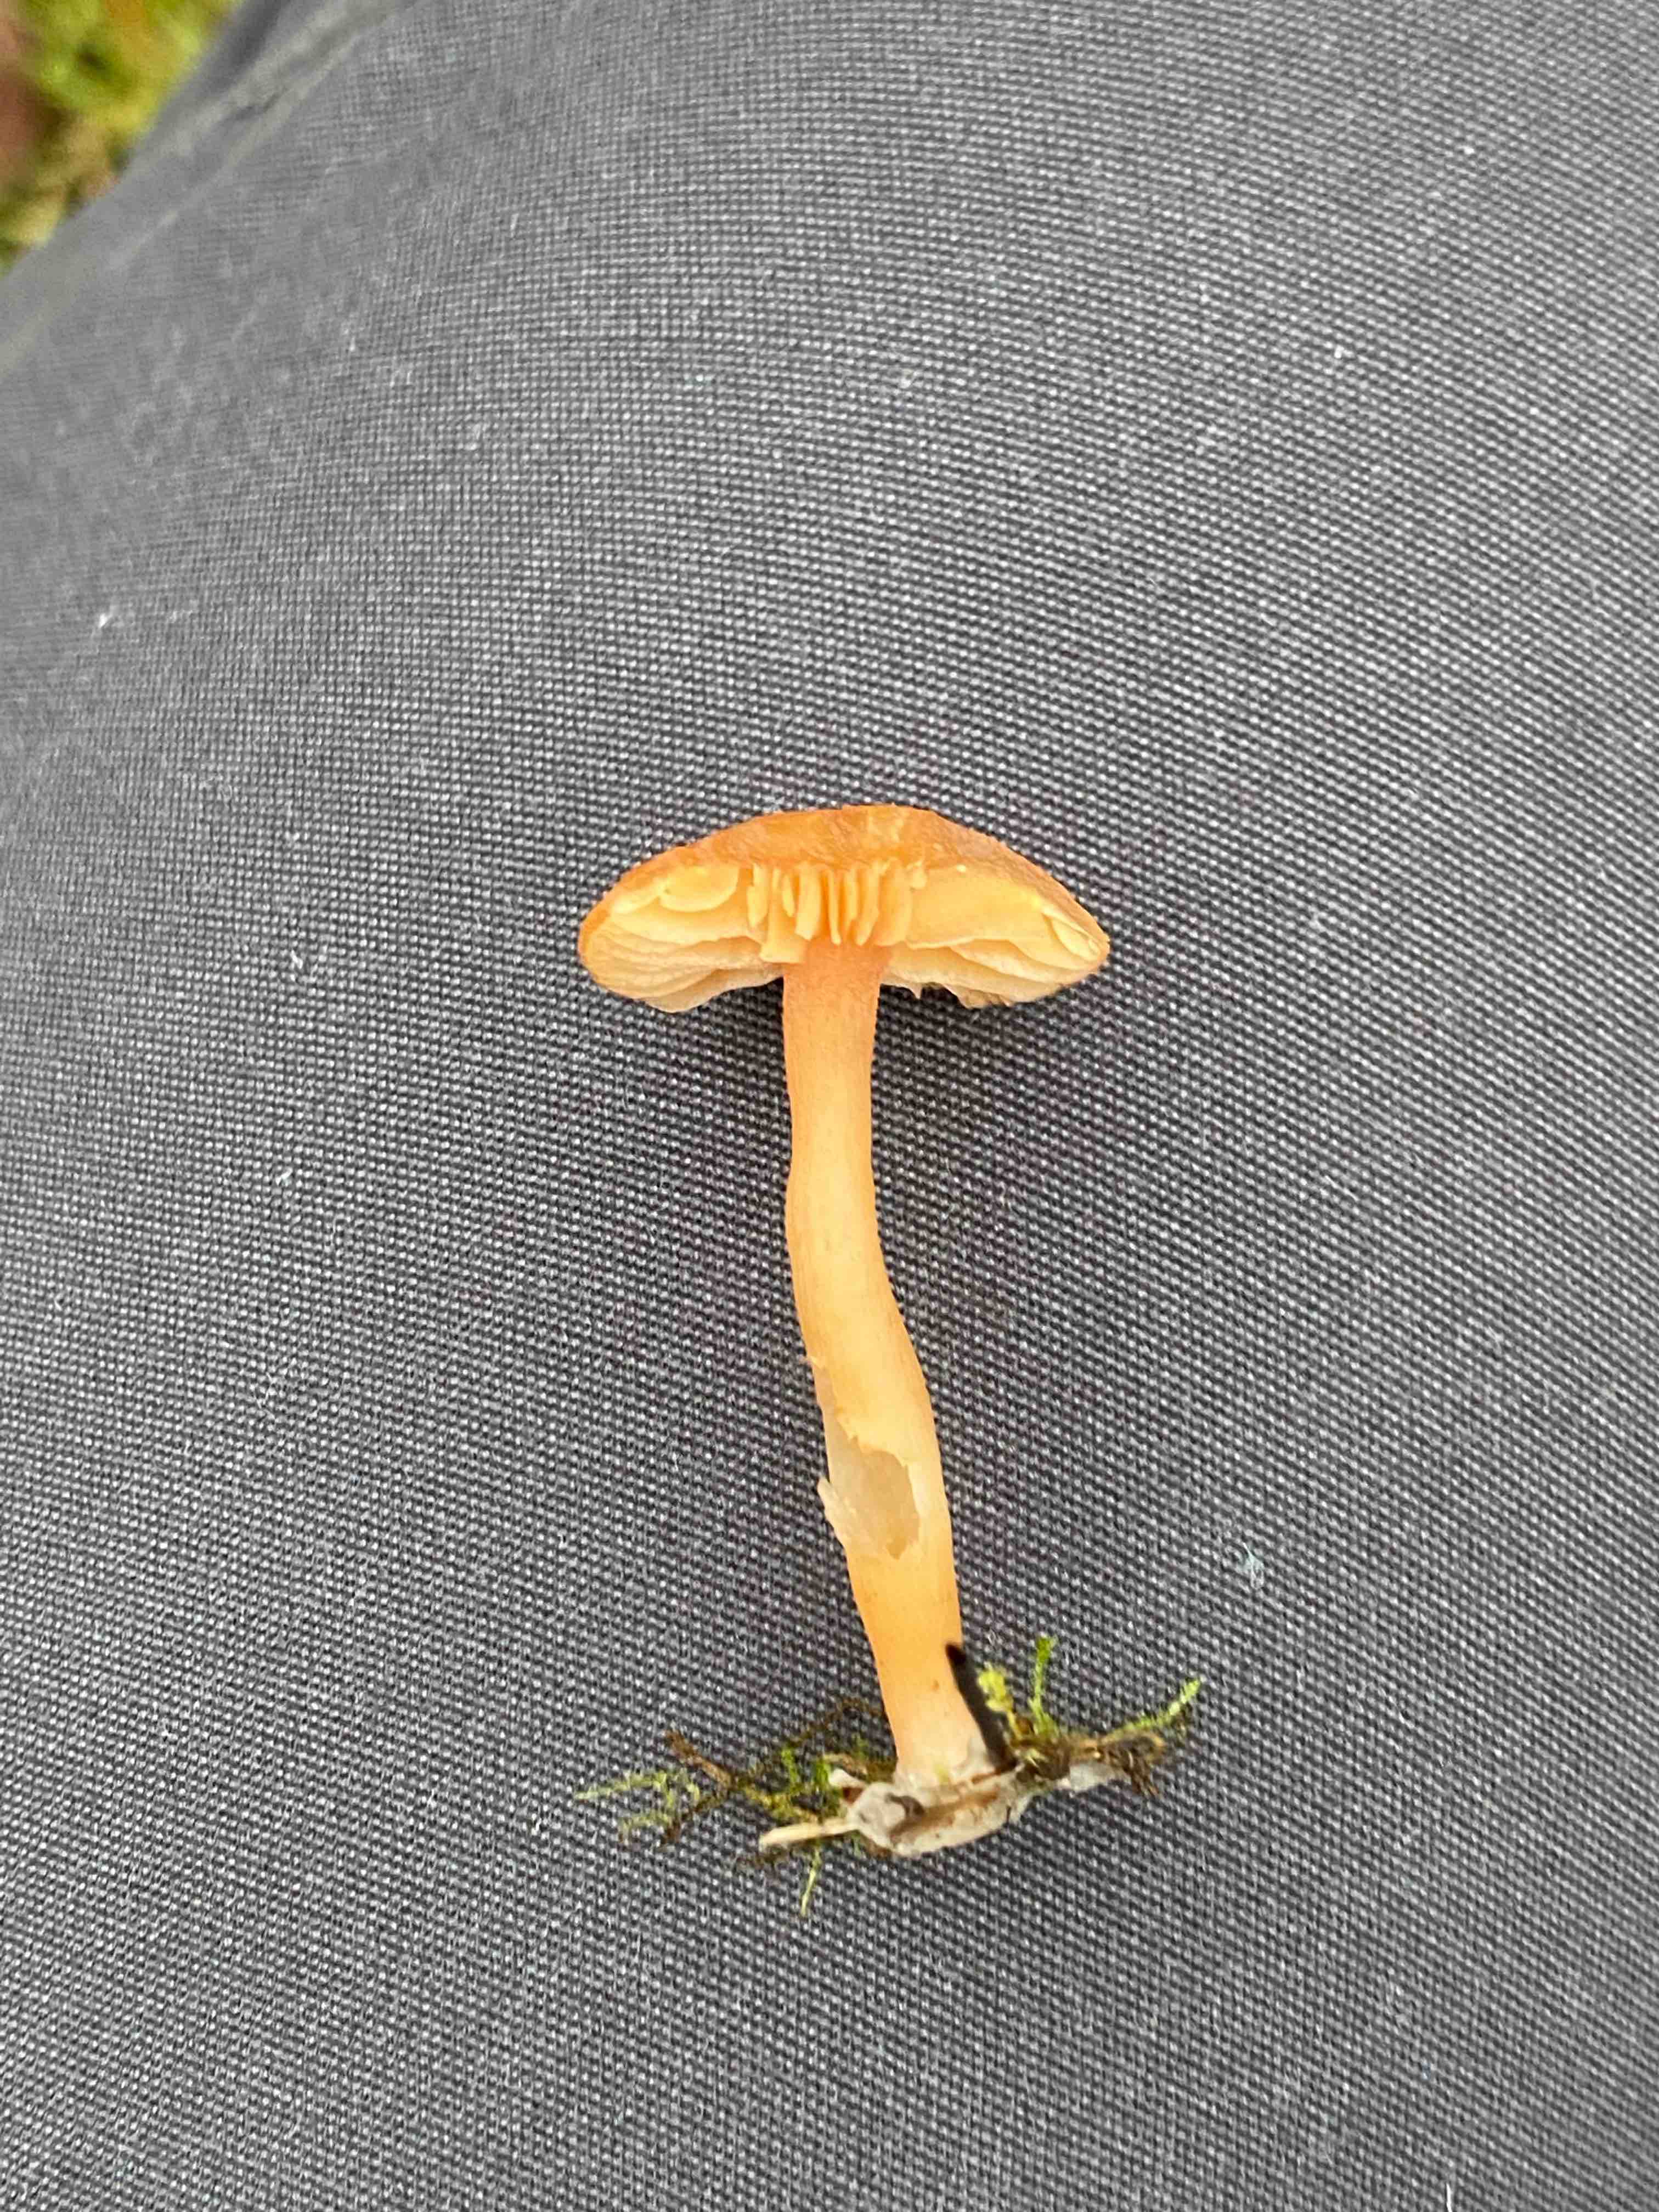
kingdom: Fungi
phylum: Basidiomycota
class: Agaricomycetes
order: Agaricales
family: Hydnangiaceae
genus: Laccaria
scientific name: Laccaria laccata
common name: rød ametysthat
